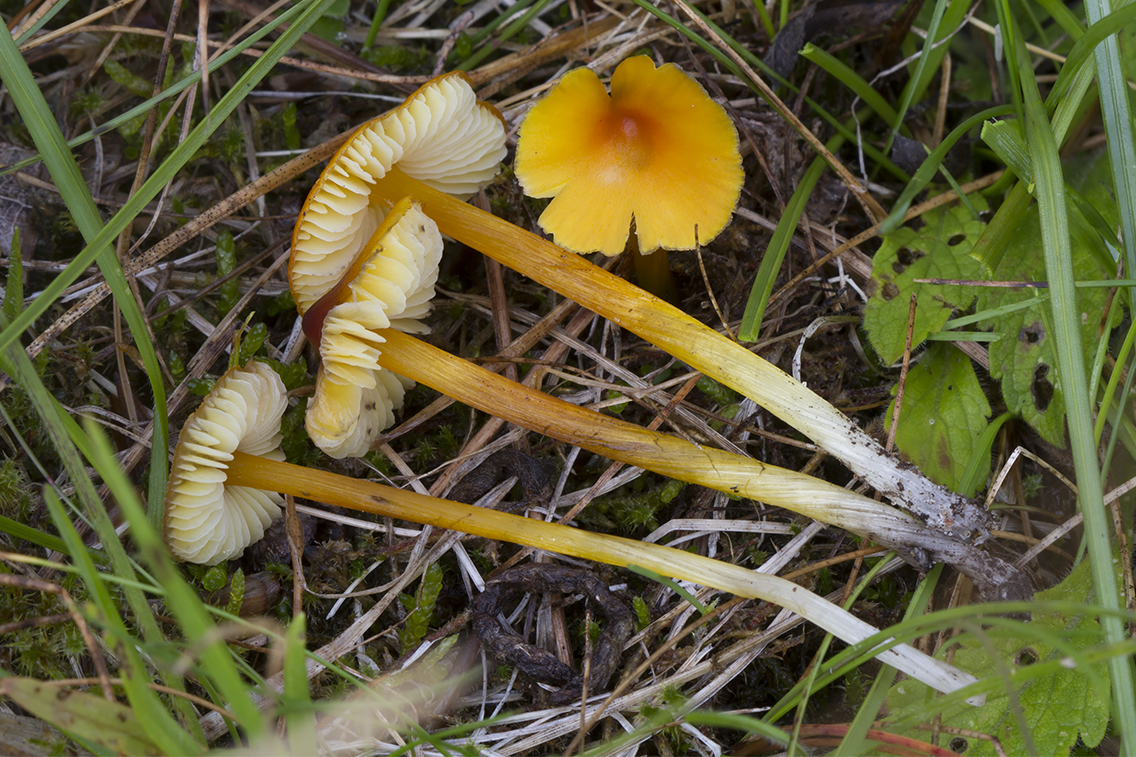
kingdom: Fungi
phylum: Basidiomycota
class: Agaricomycetes
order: Agaricales
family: Hygrophoraceae
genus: Hygrocybe
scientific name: Hygrocybe conica
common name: kegle-vokshat
